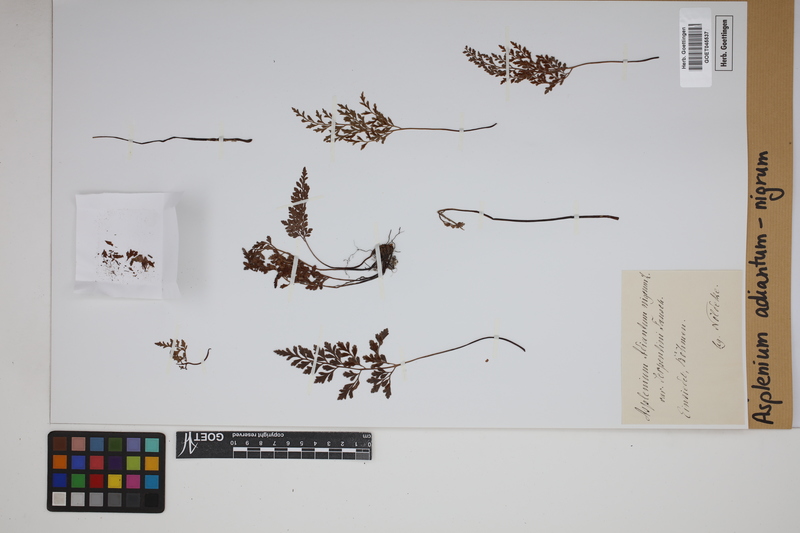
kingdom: Plantae
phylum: Tracheophyta
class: Polypodiopsida
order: Polypodiales
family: Aspleniaceae
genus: Asplenium
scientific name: Asplenium adiantum-nigrum
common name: Black spleenwort
